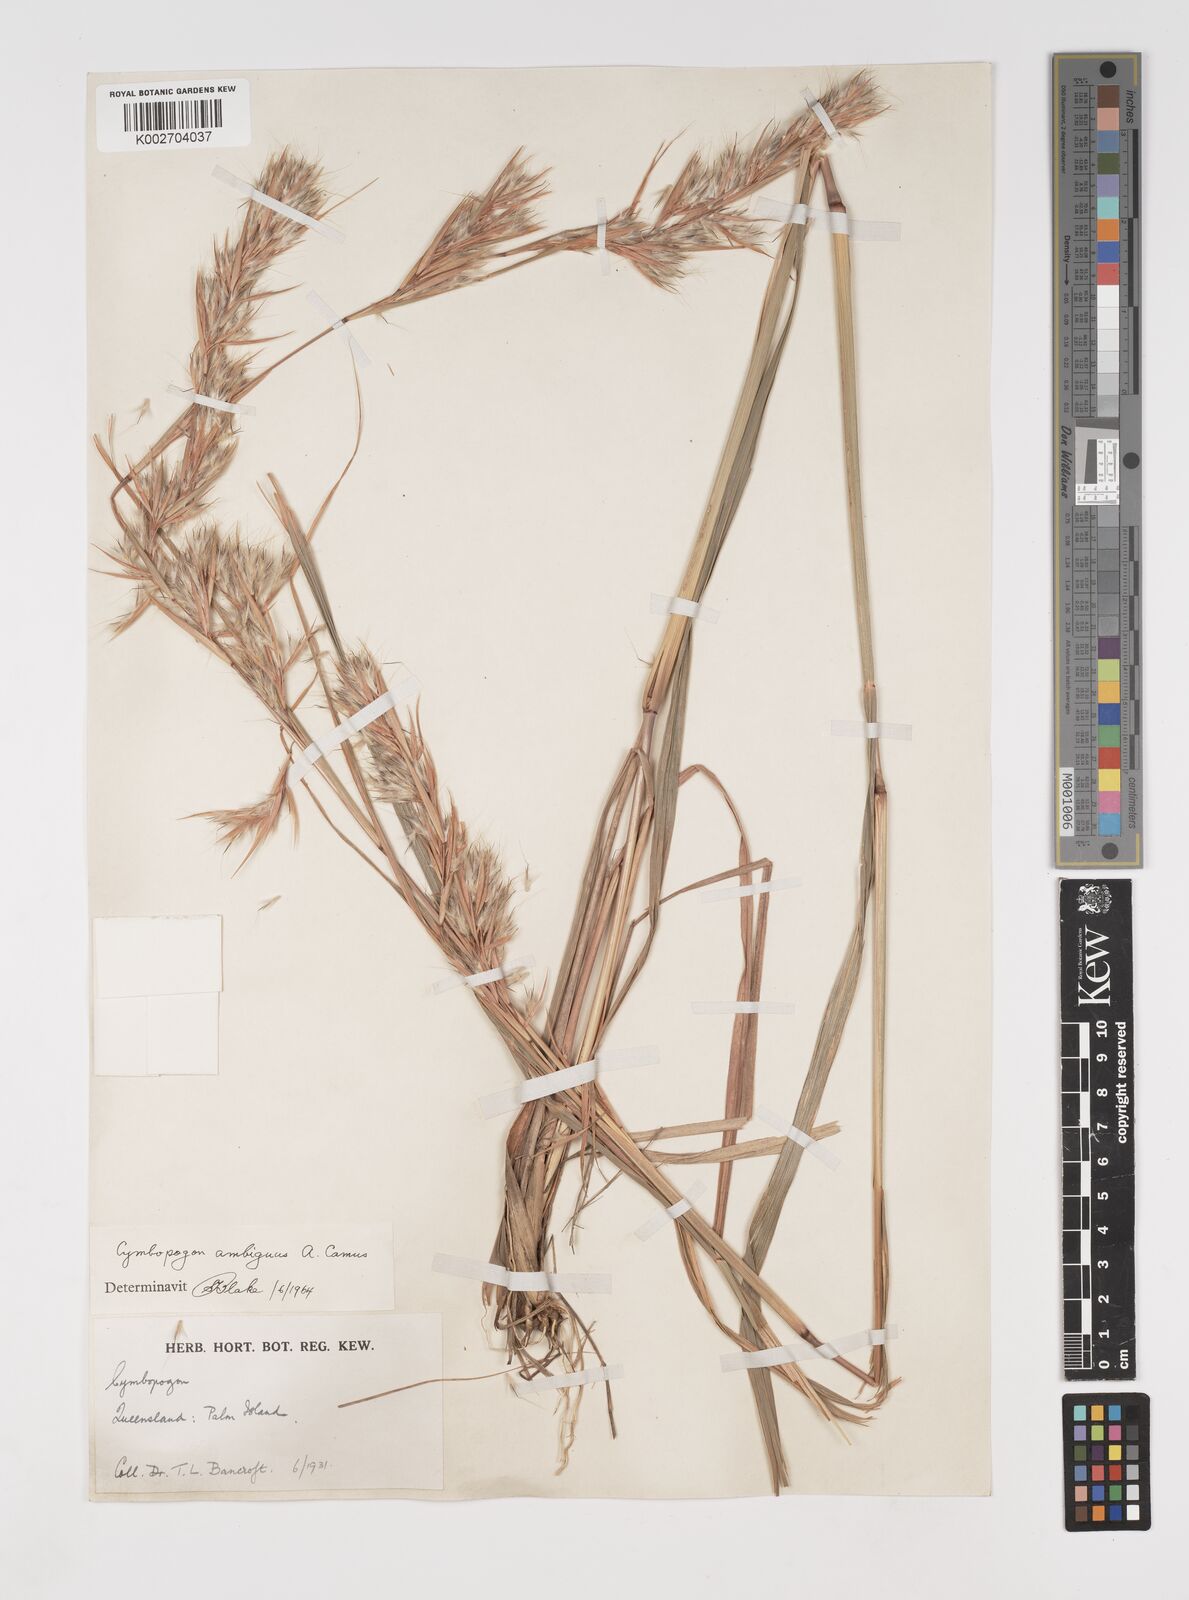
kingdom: Plantae
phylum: Tracheophyta
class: Liliopsida
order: Poales
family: Poaceae
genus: Cymbopogon
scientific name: Cymbopogon ambiguus
